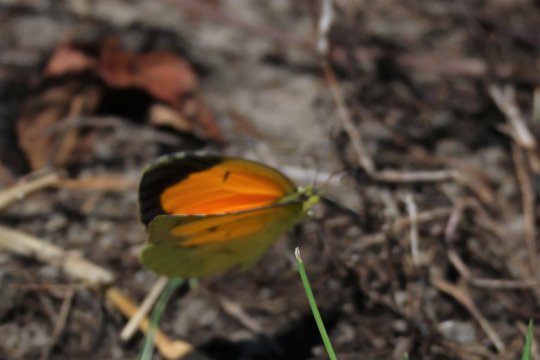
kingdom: Animalia
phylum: Arthropoda
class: Insecta
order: Lepidoptera
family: Pieridae
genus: Abaeis
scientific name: Abaeis nicippe
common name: Sleepy Orange
